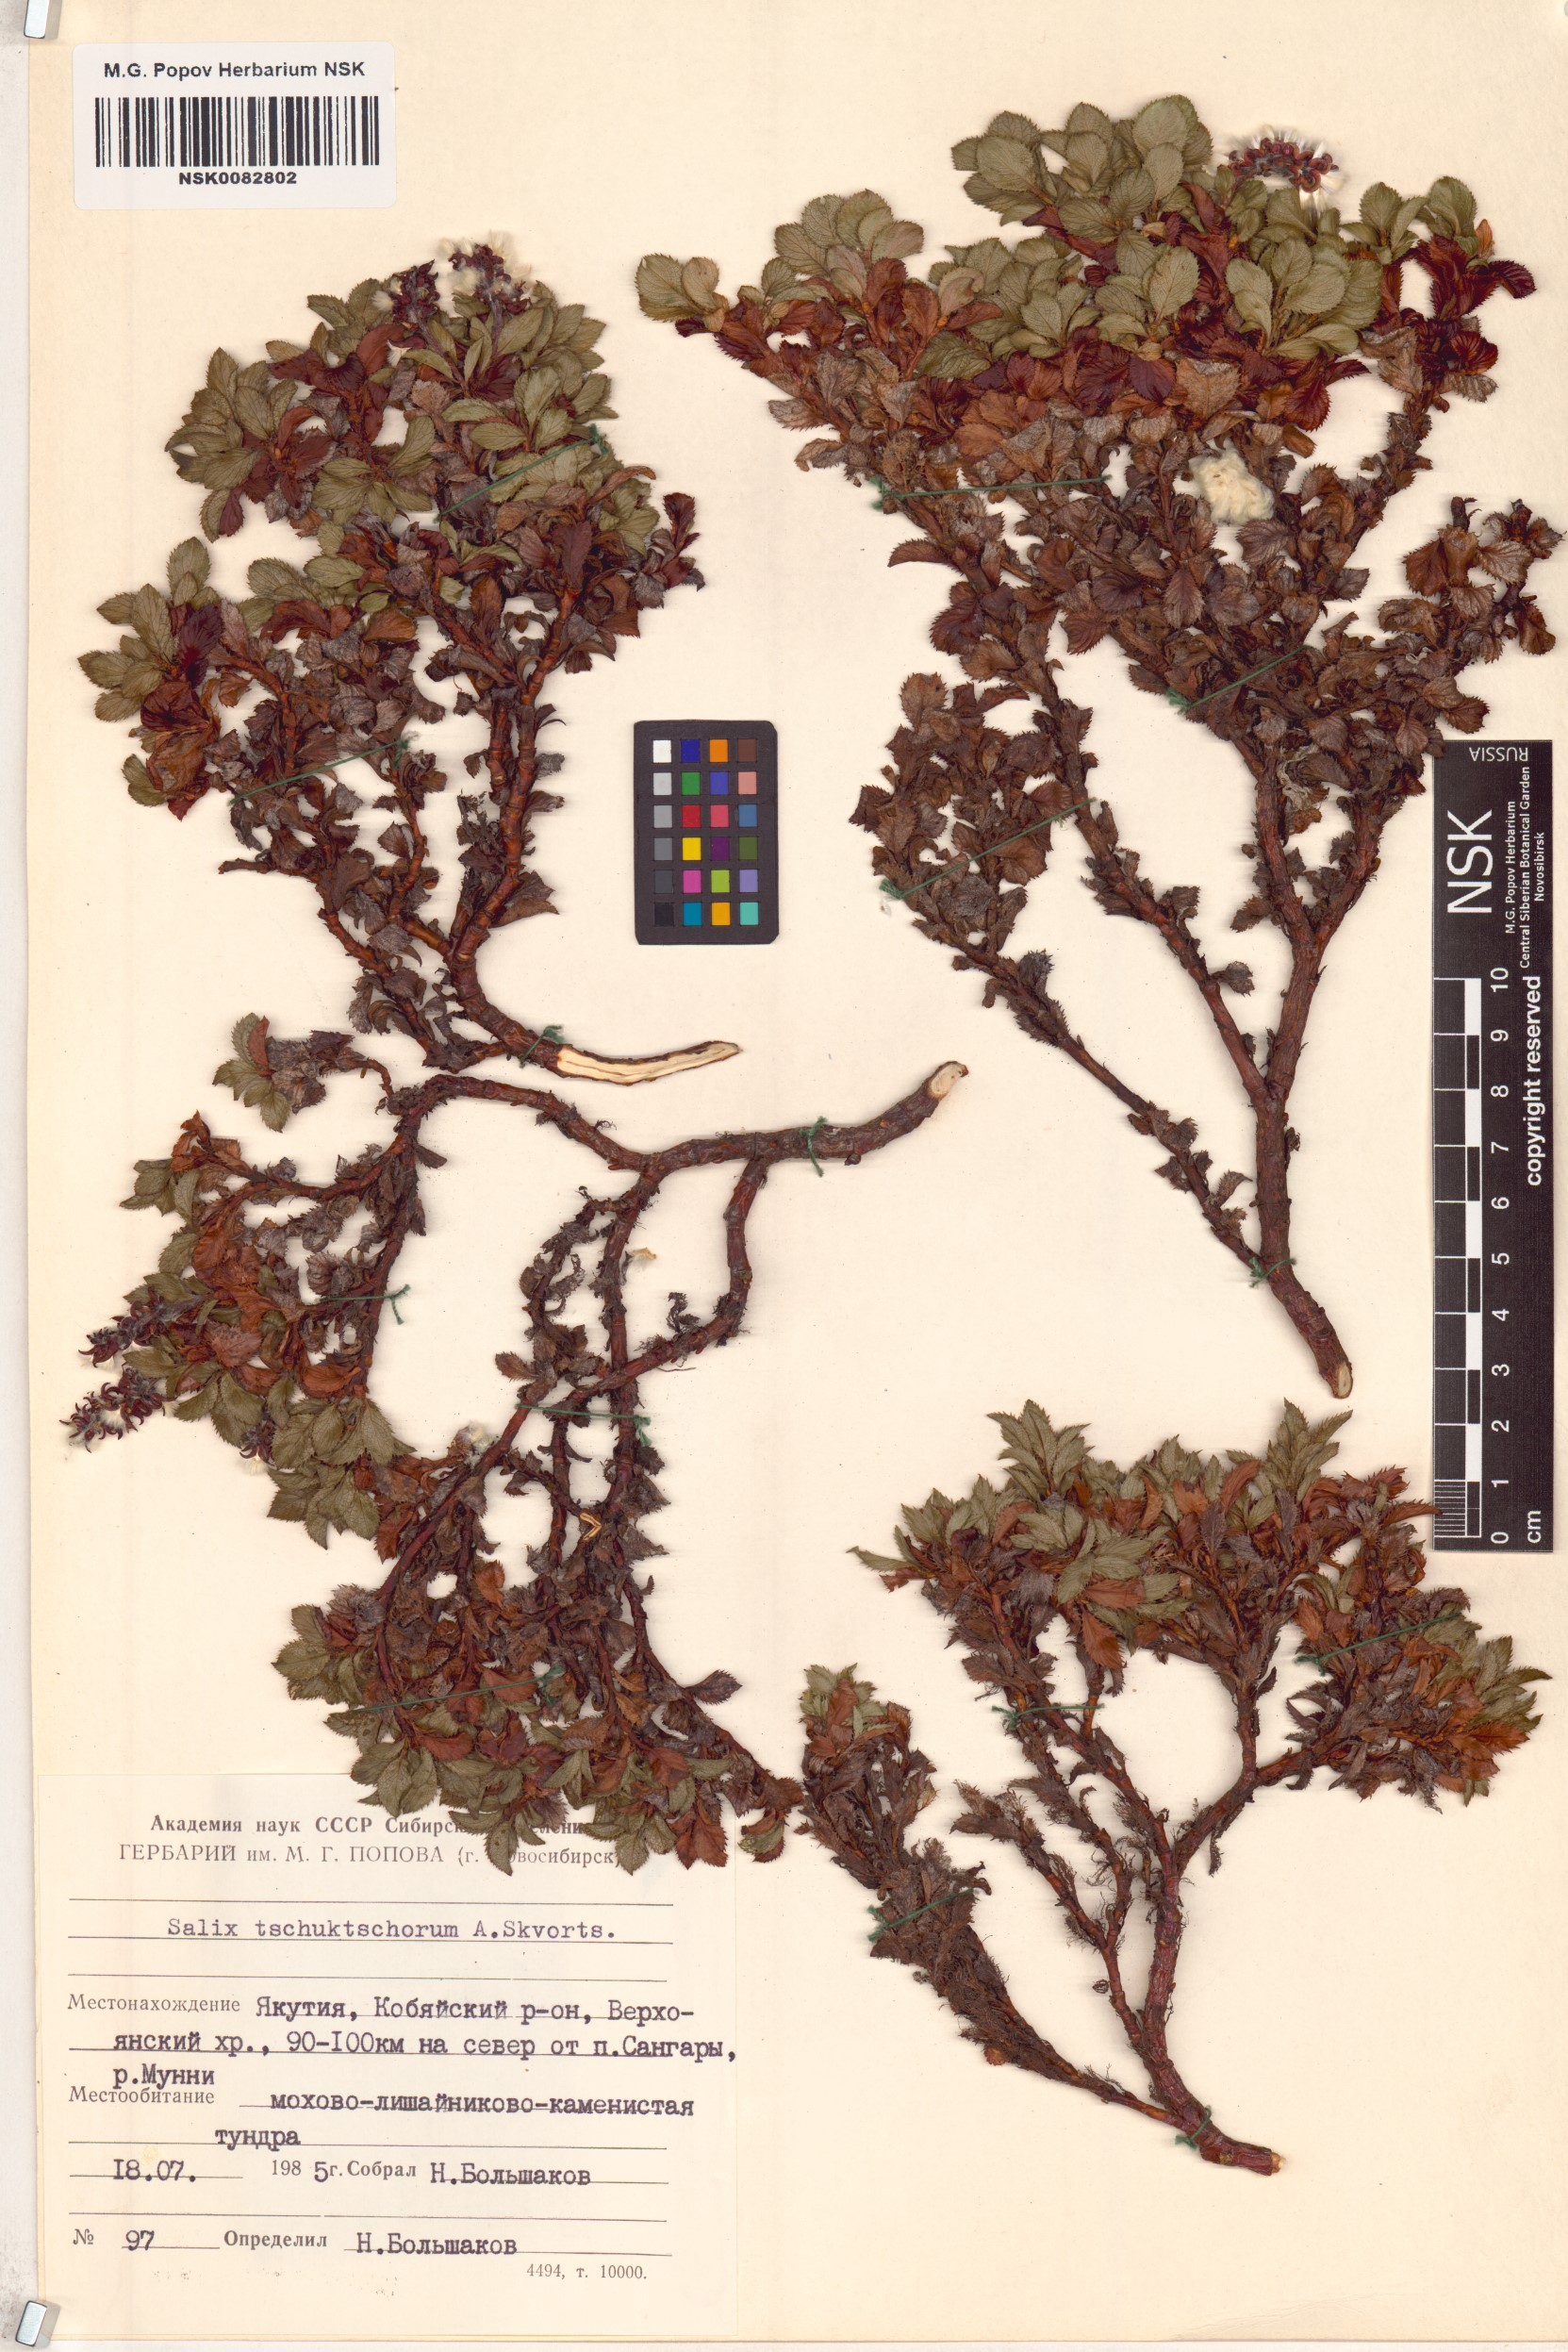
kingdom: Plantae
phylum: Tracheophyta
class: Magnoliopsida
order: Malpighiales
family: Salicaceae
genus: Salix
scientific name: Salix tschuktschorum
